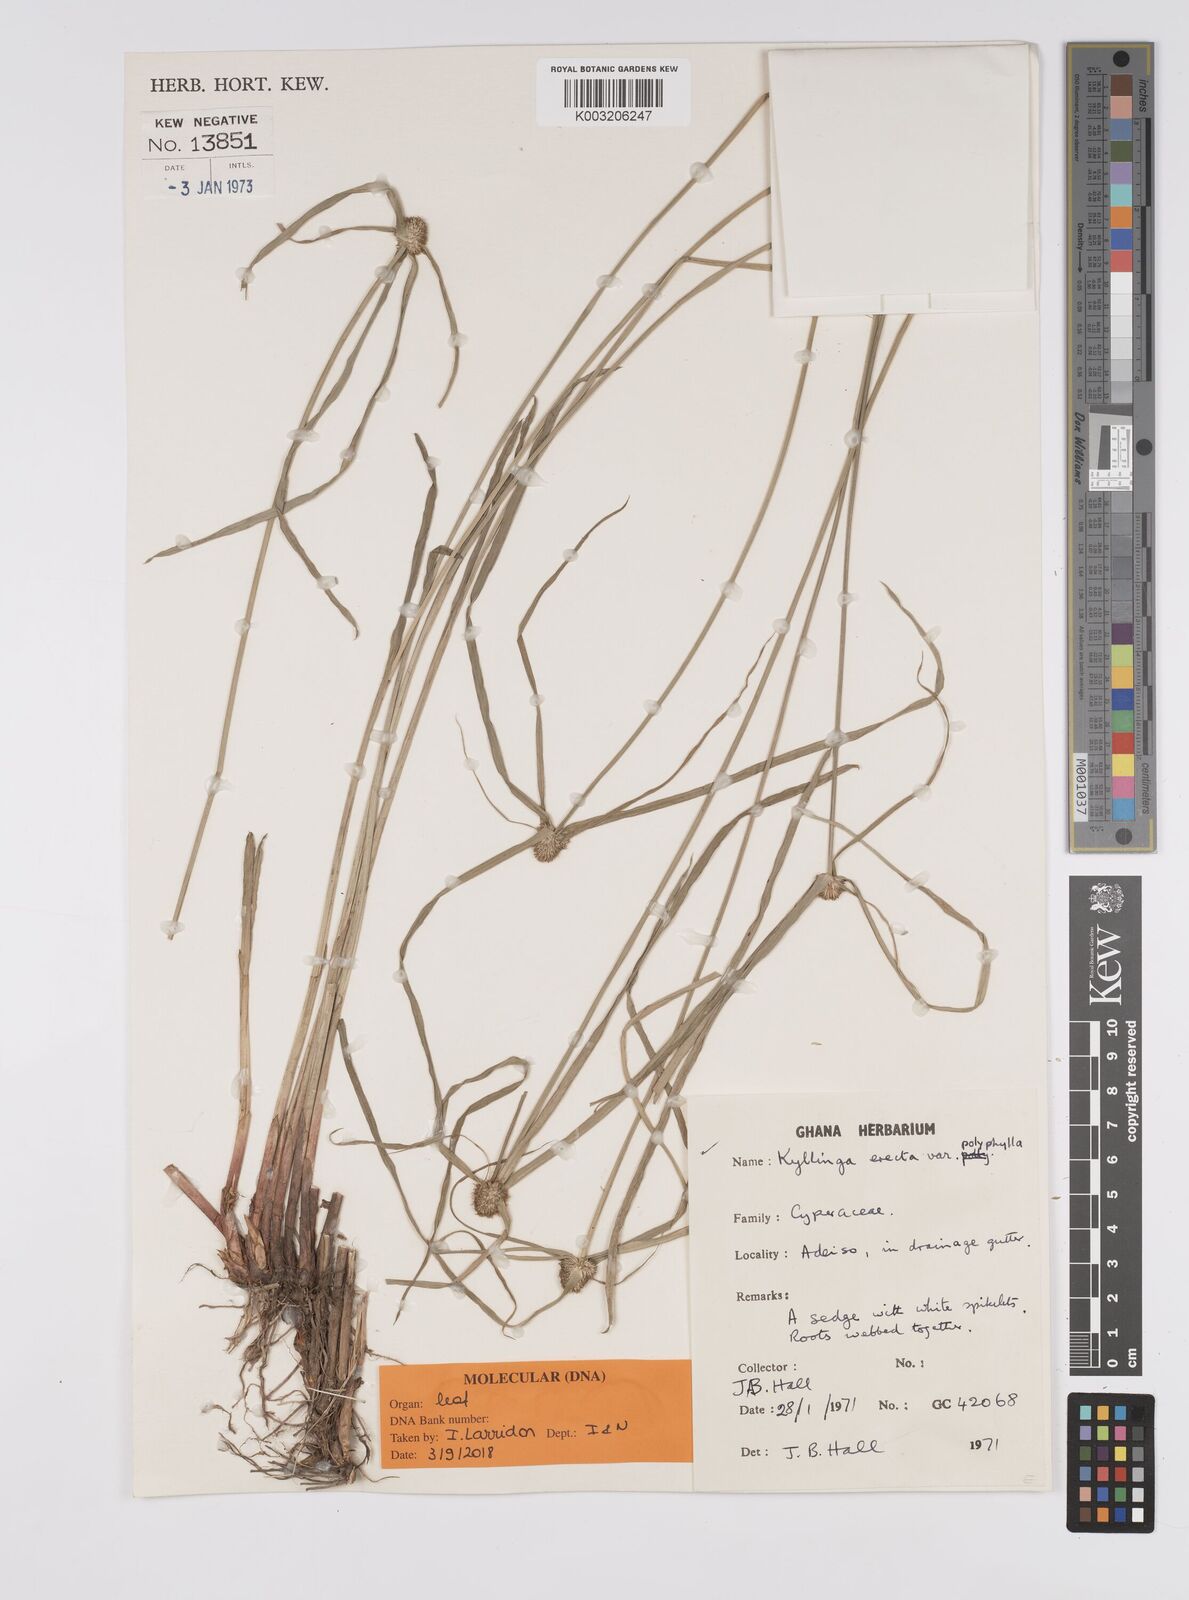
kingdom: Plantae
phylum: Tracheophyta
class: Liliopsida
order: Poales
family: Cyperaceae
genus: Cyperus
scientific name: Cyperus
